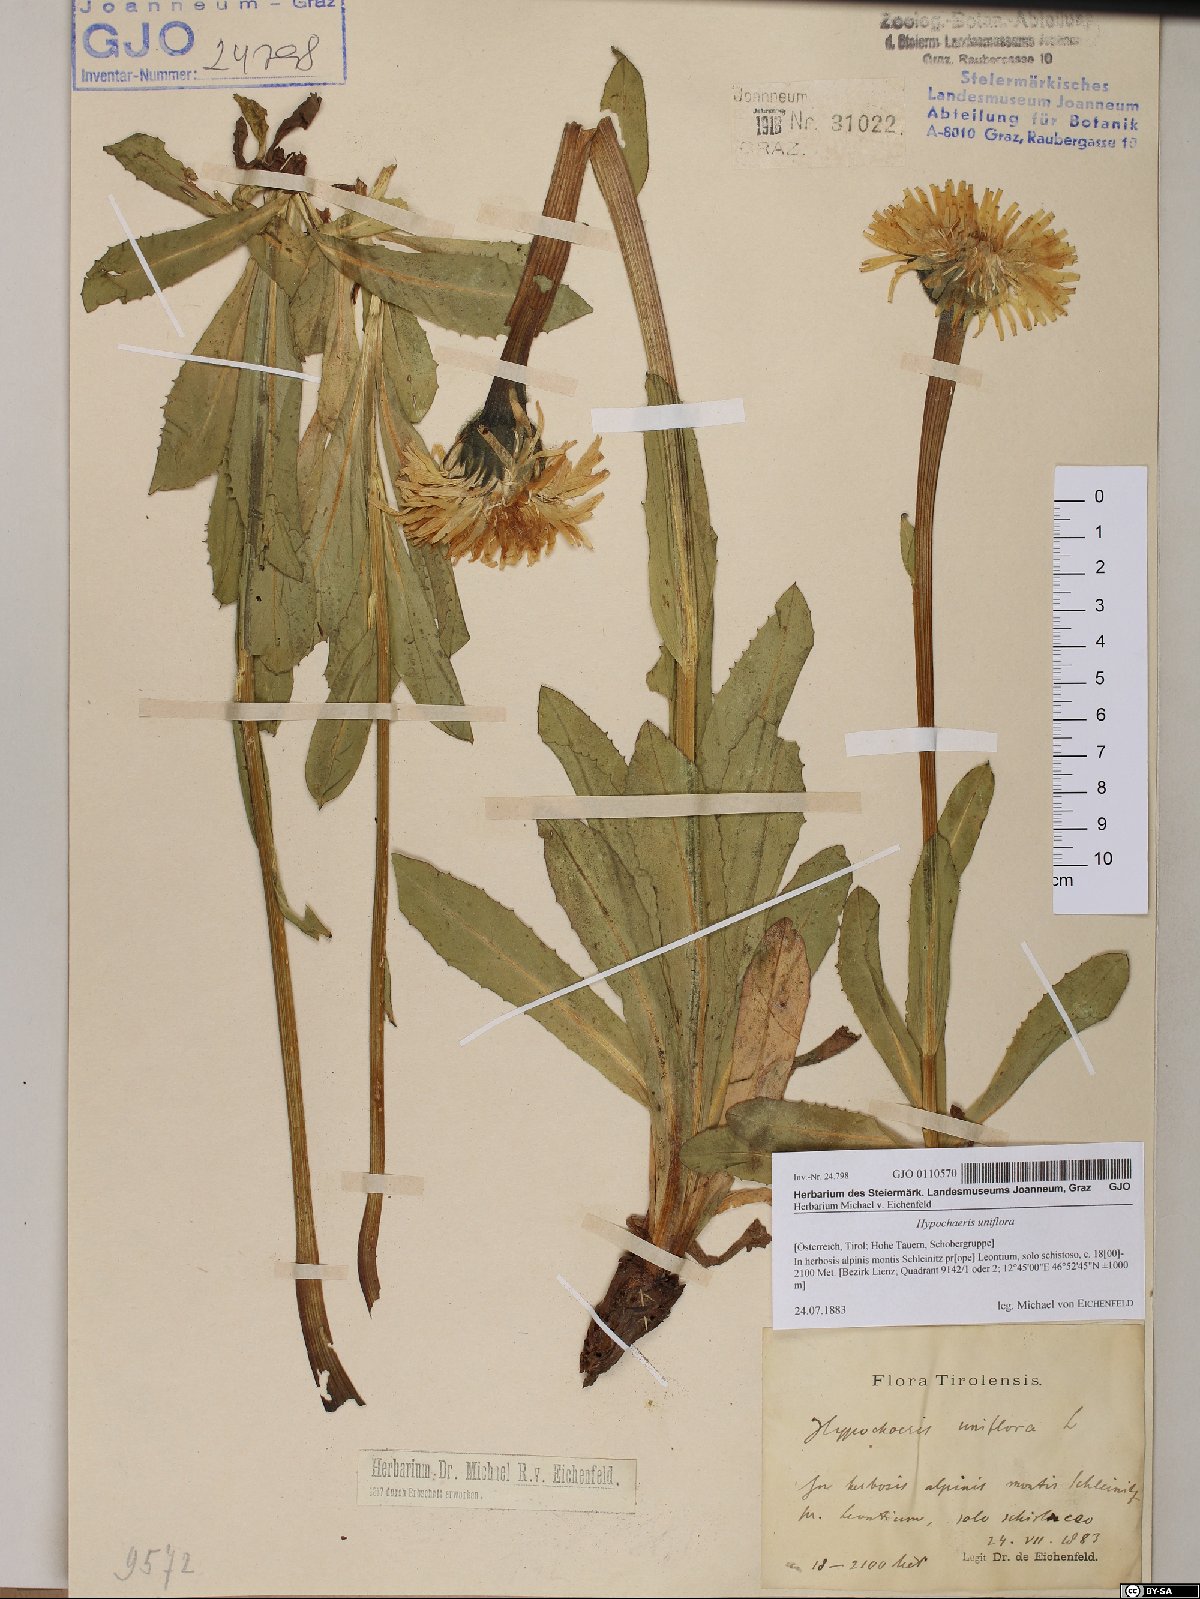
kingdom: Plantae
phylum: Tracheophyta
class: Magnoliopsida
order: Asterales
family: Asteraceae
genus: Trommsdorffia
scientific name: Trommsdorffia uniflora
